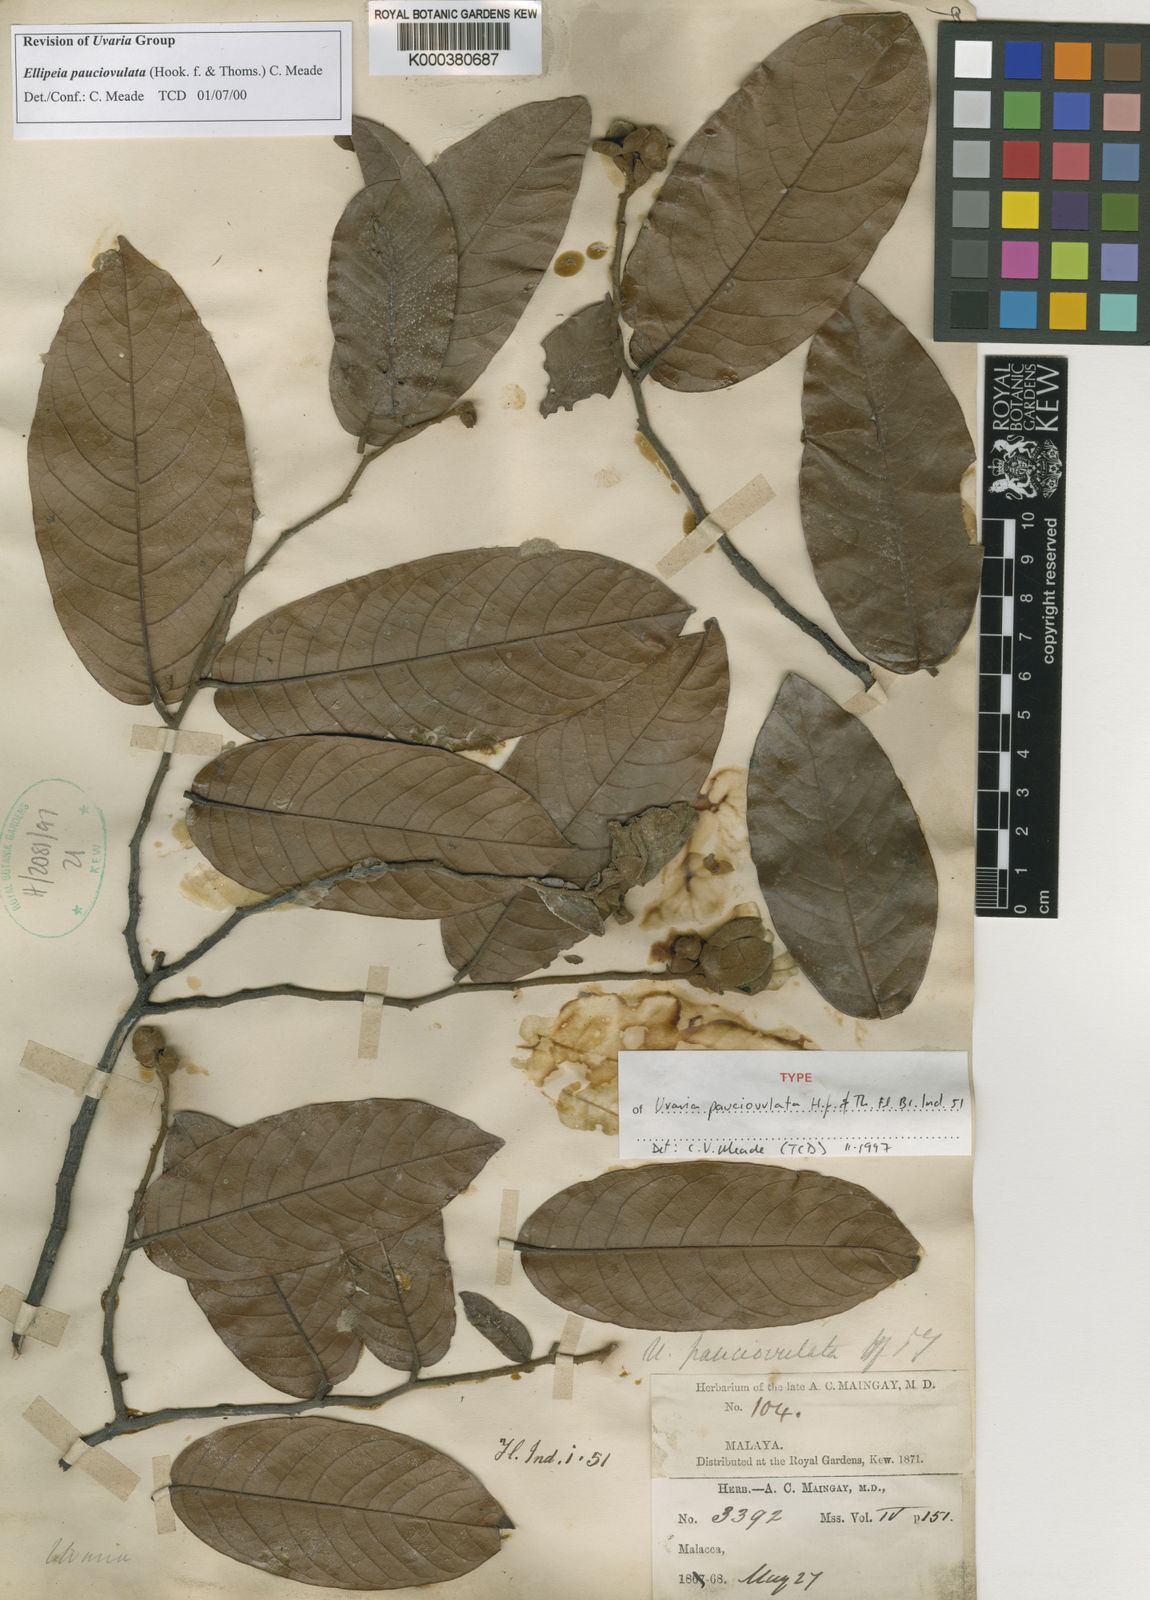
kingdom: Plantae
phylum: Tracheophyta
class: Magnoliopsida
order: Magnoliales
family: Annonaceae
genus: Uvaria
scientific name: Uvaria pauciovulata
